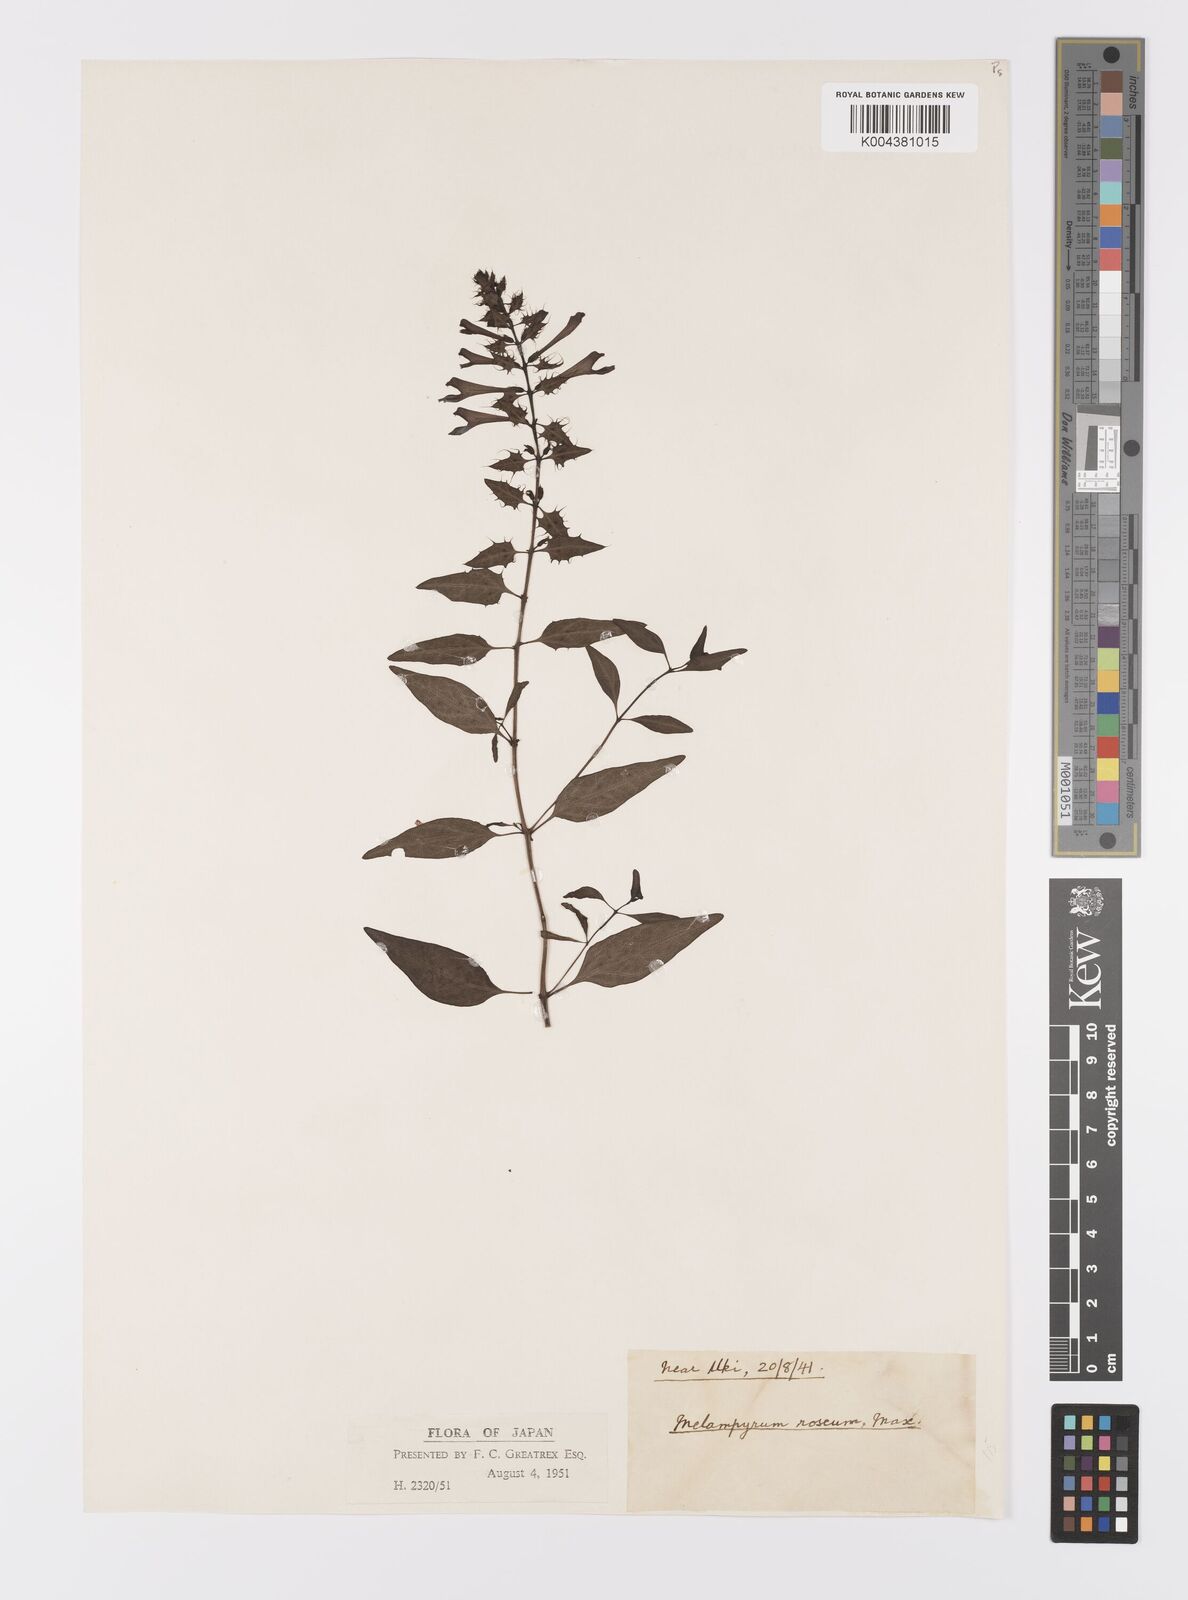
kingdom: Plantae
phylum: Tracheophyta
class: Magnoliopsida
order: Lamiales
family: Orobanchaceae
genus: Melampyrum
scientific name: Melampyrum roseum
